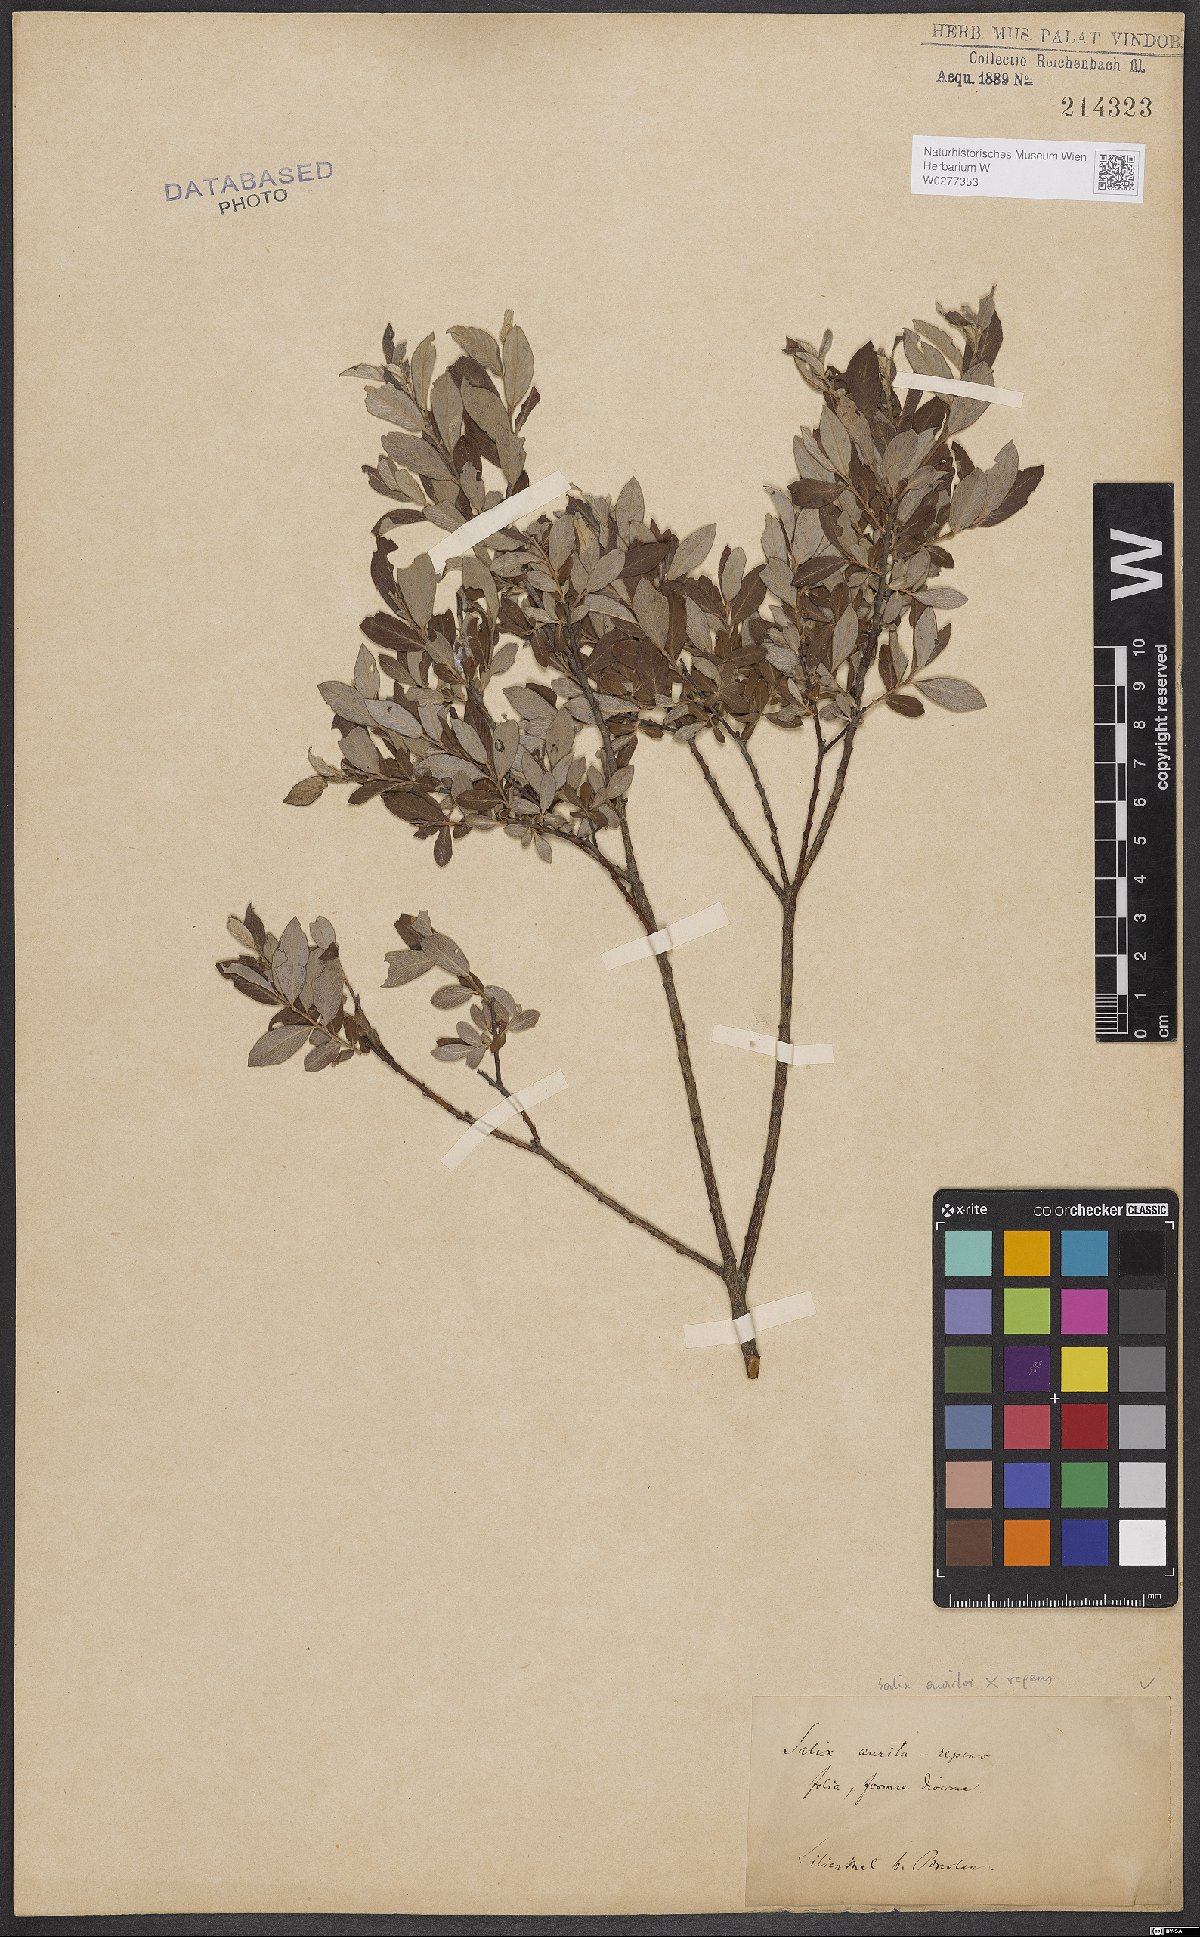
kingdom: Plantae
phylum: Tracheophyta
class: Magnoliopsida
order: Malpighiales
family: Salicaceae
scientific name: Salicaceae
